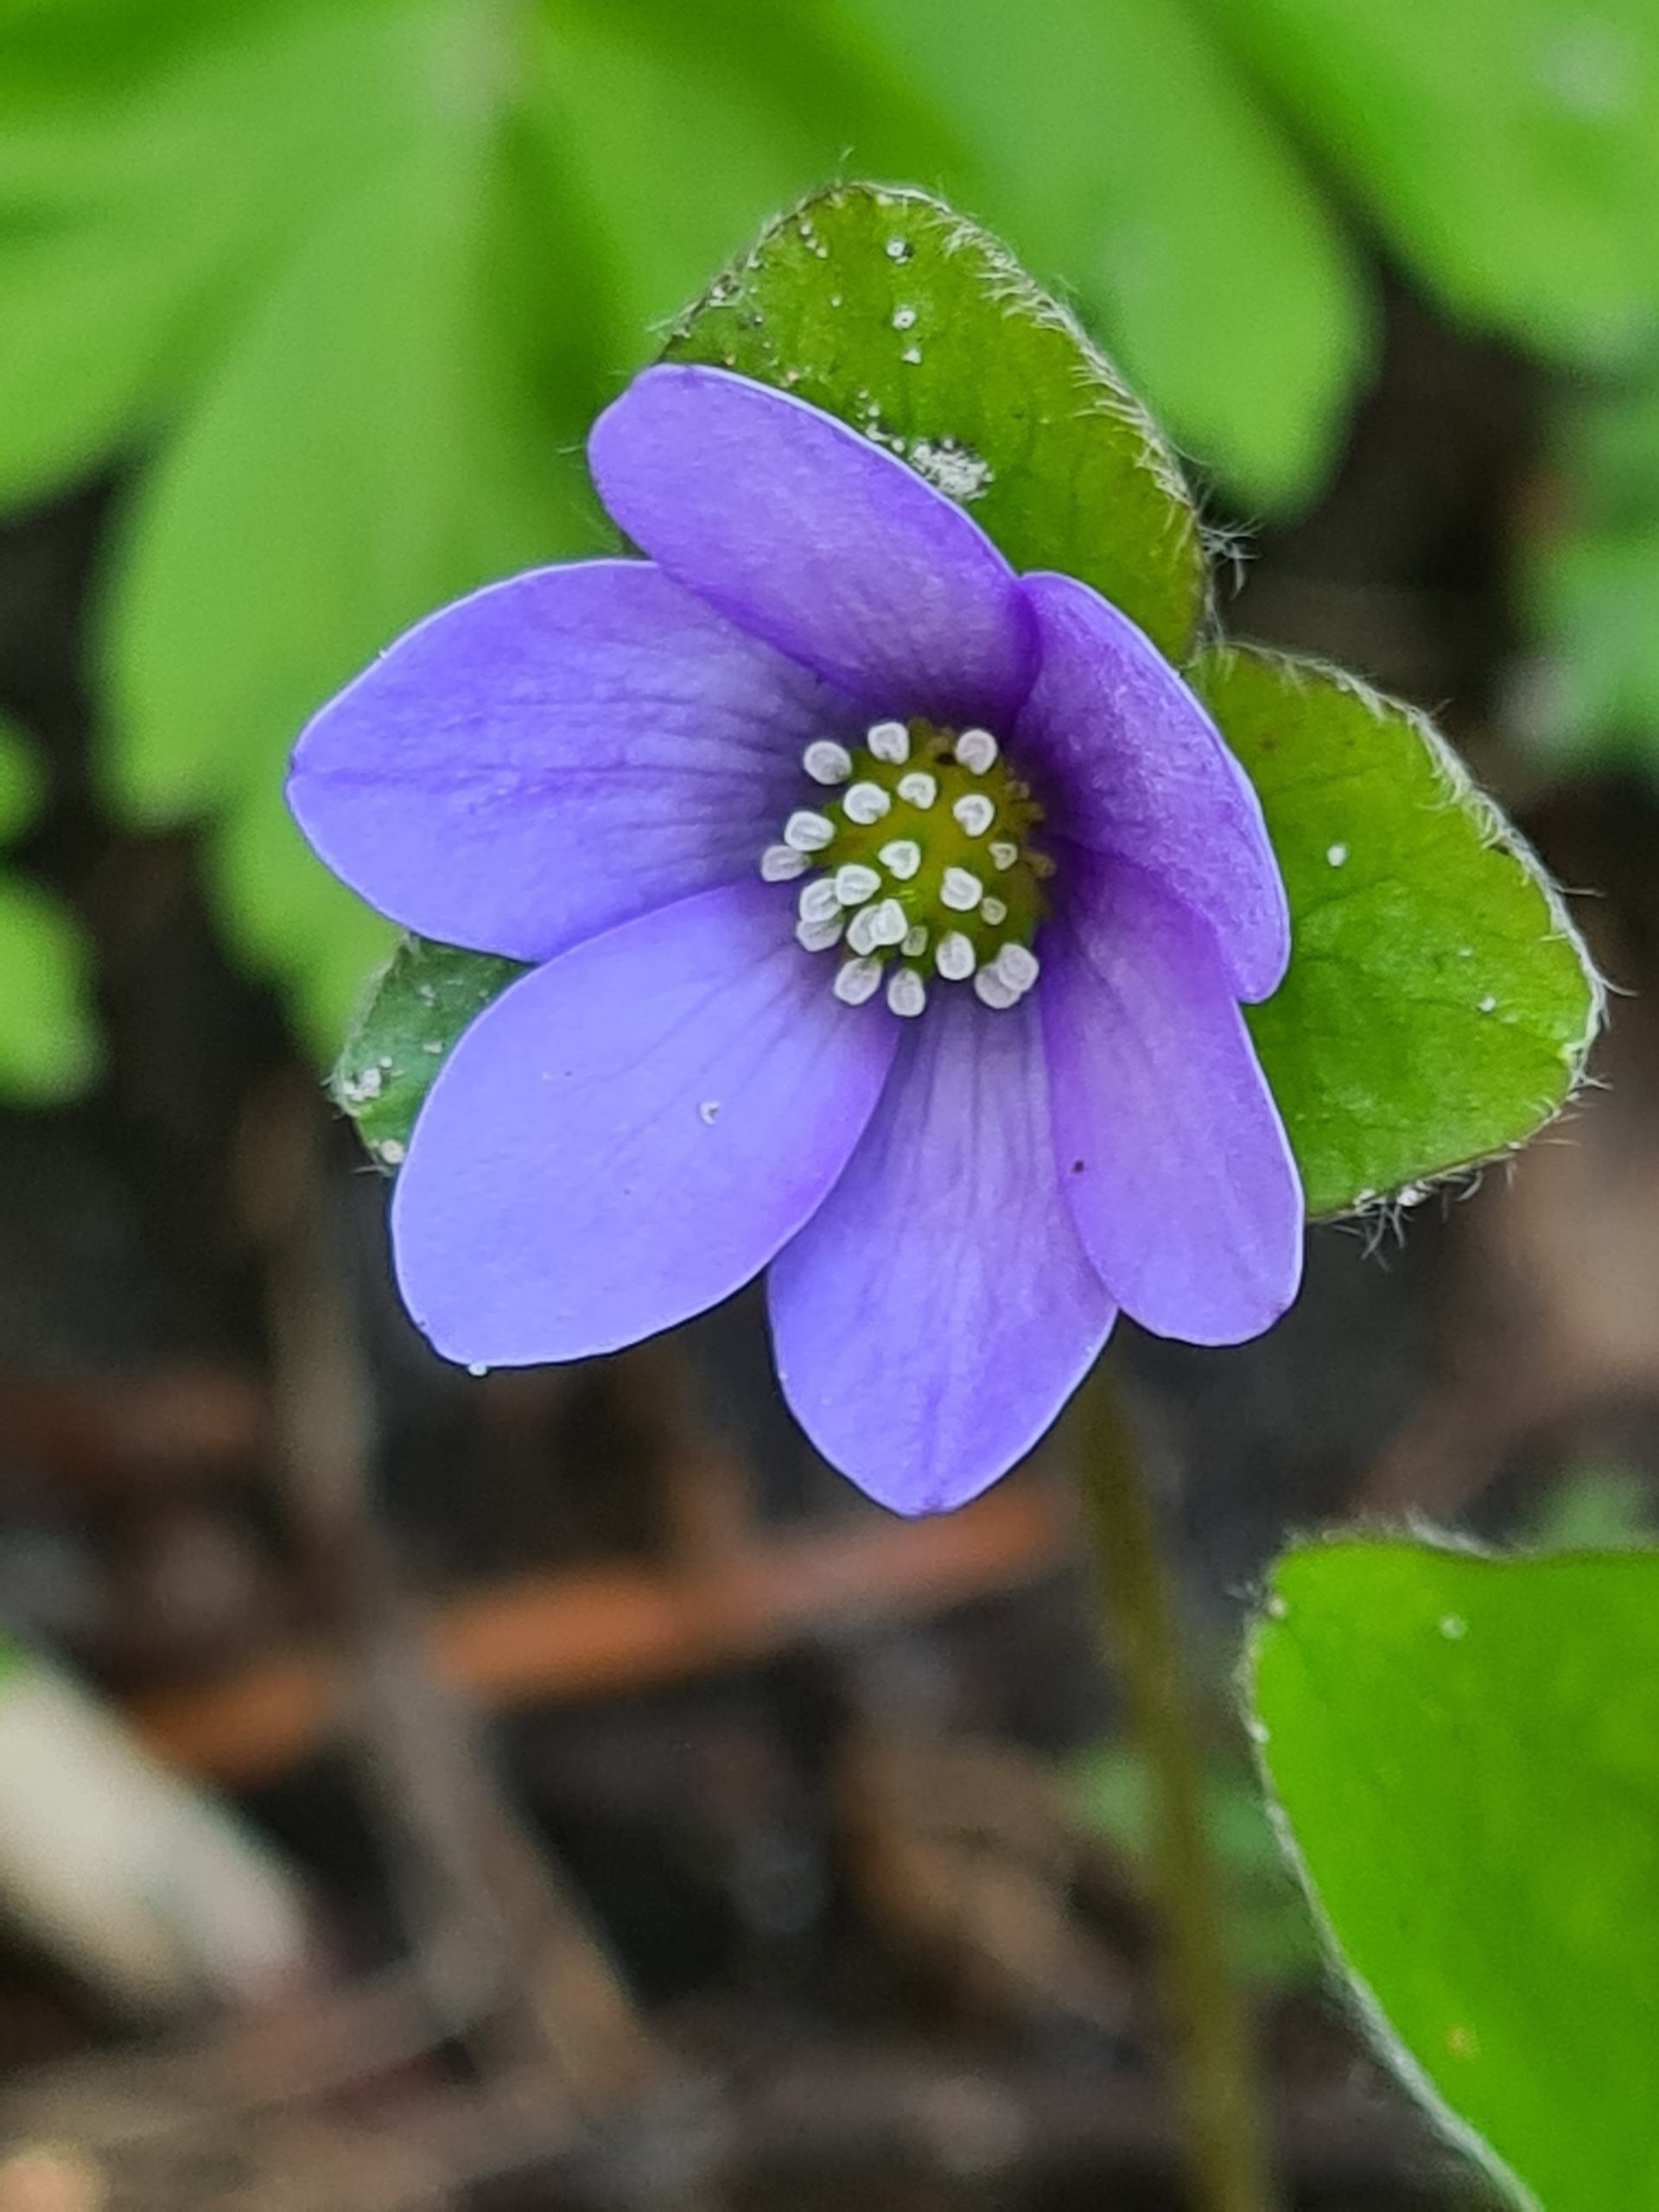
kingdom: Plantae
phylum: Tracheophyta
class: Magnoliopsida
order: Ranunculales
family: Ranunculaceae
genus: Hepatica
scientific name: Hepatica nobilis
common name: Blå anemone
